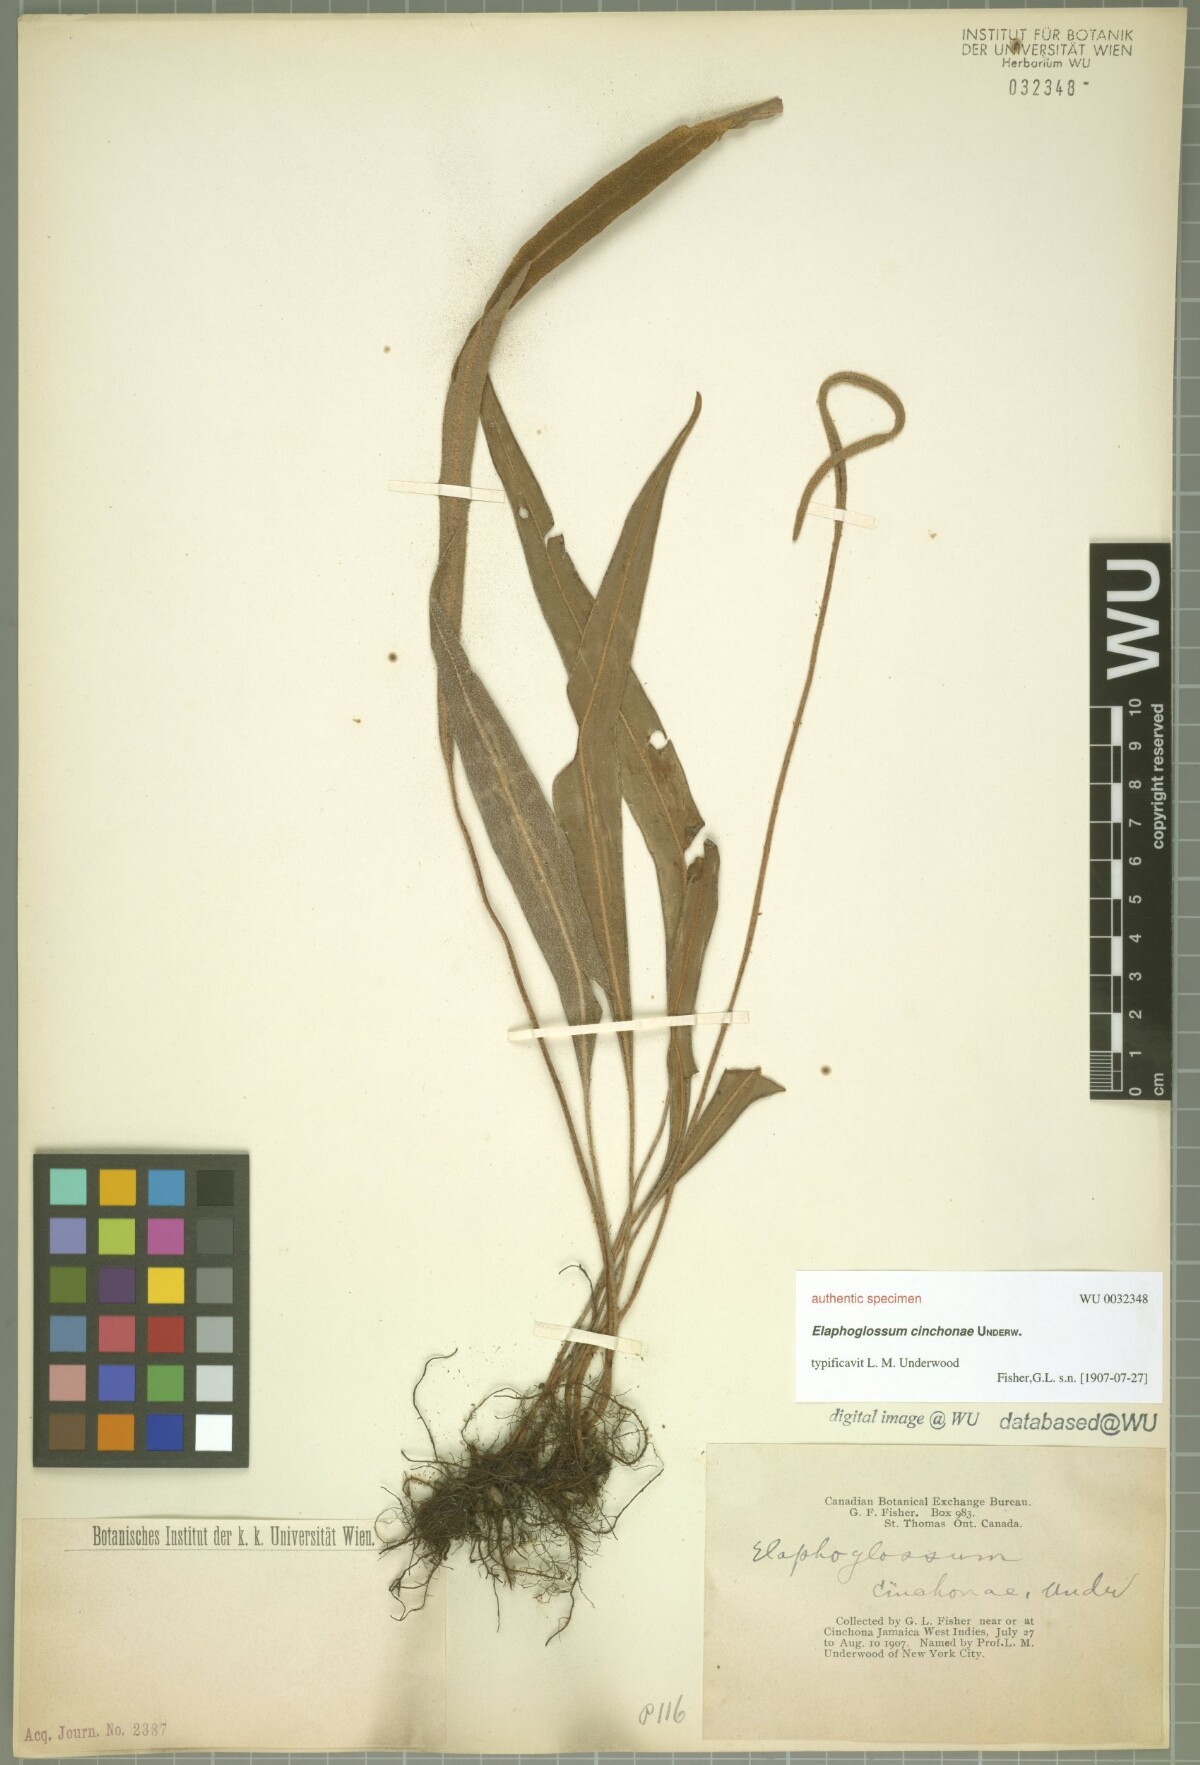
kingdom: Plantae
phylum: Tracheophyta
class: Polypodiopsida
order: Polypodiales
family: Lomariopsidaceae
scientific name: Lomariopsidaceae
